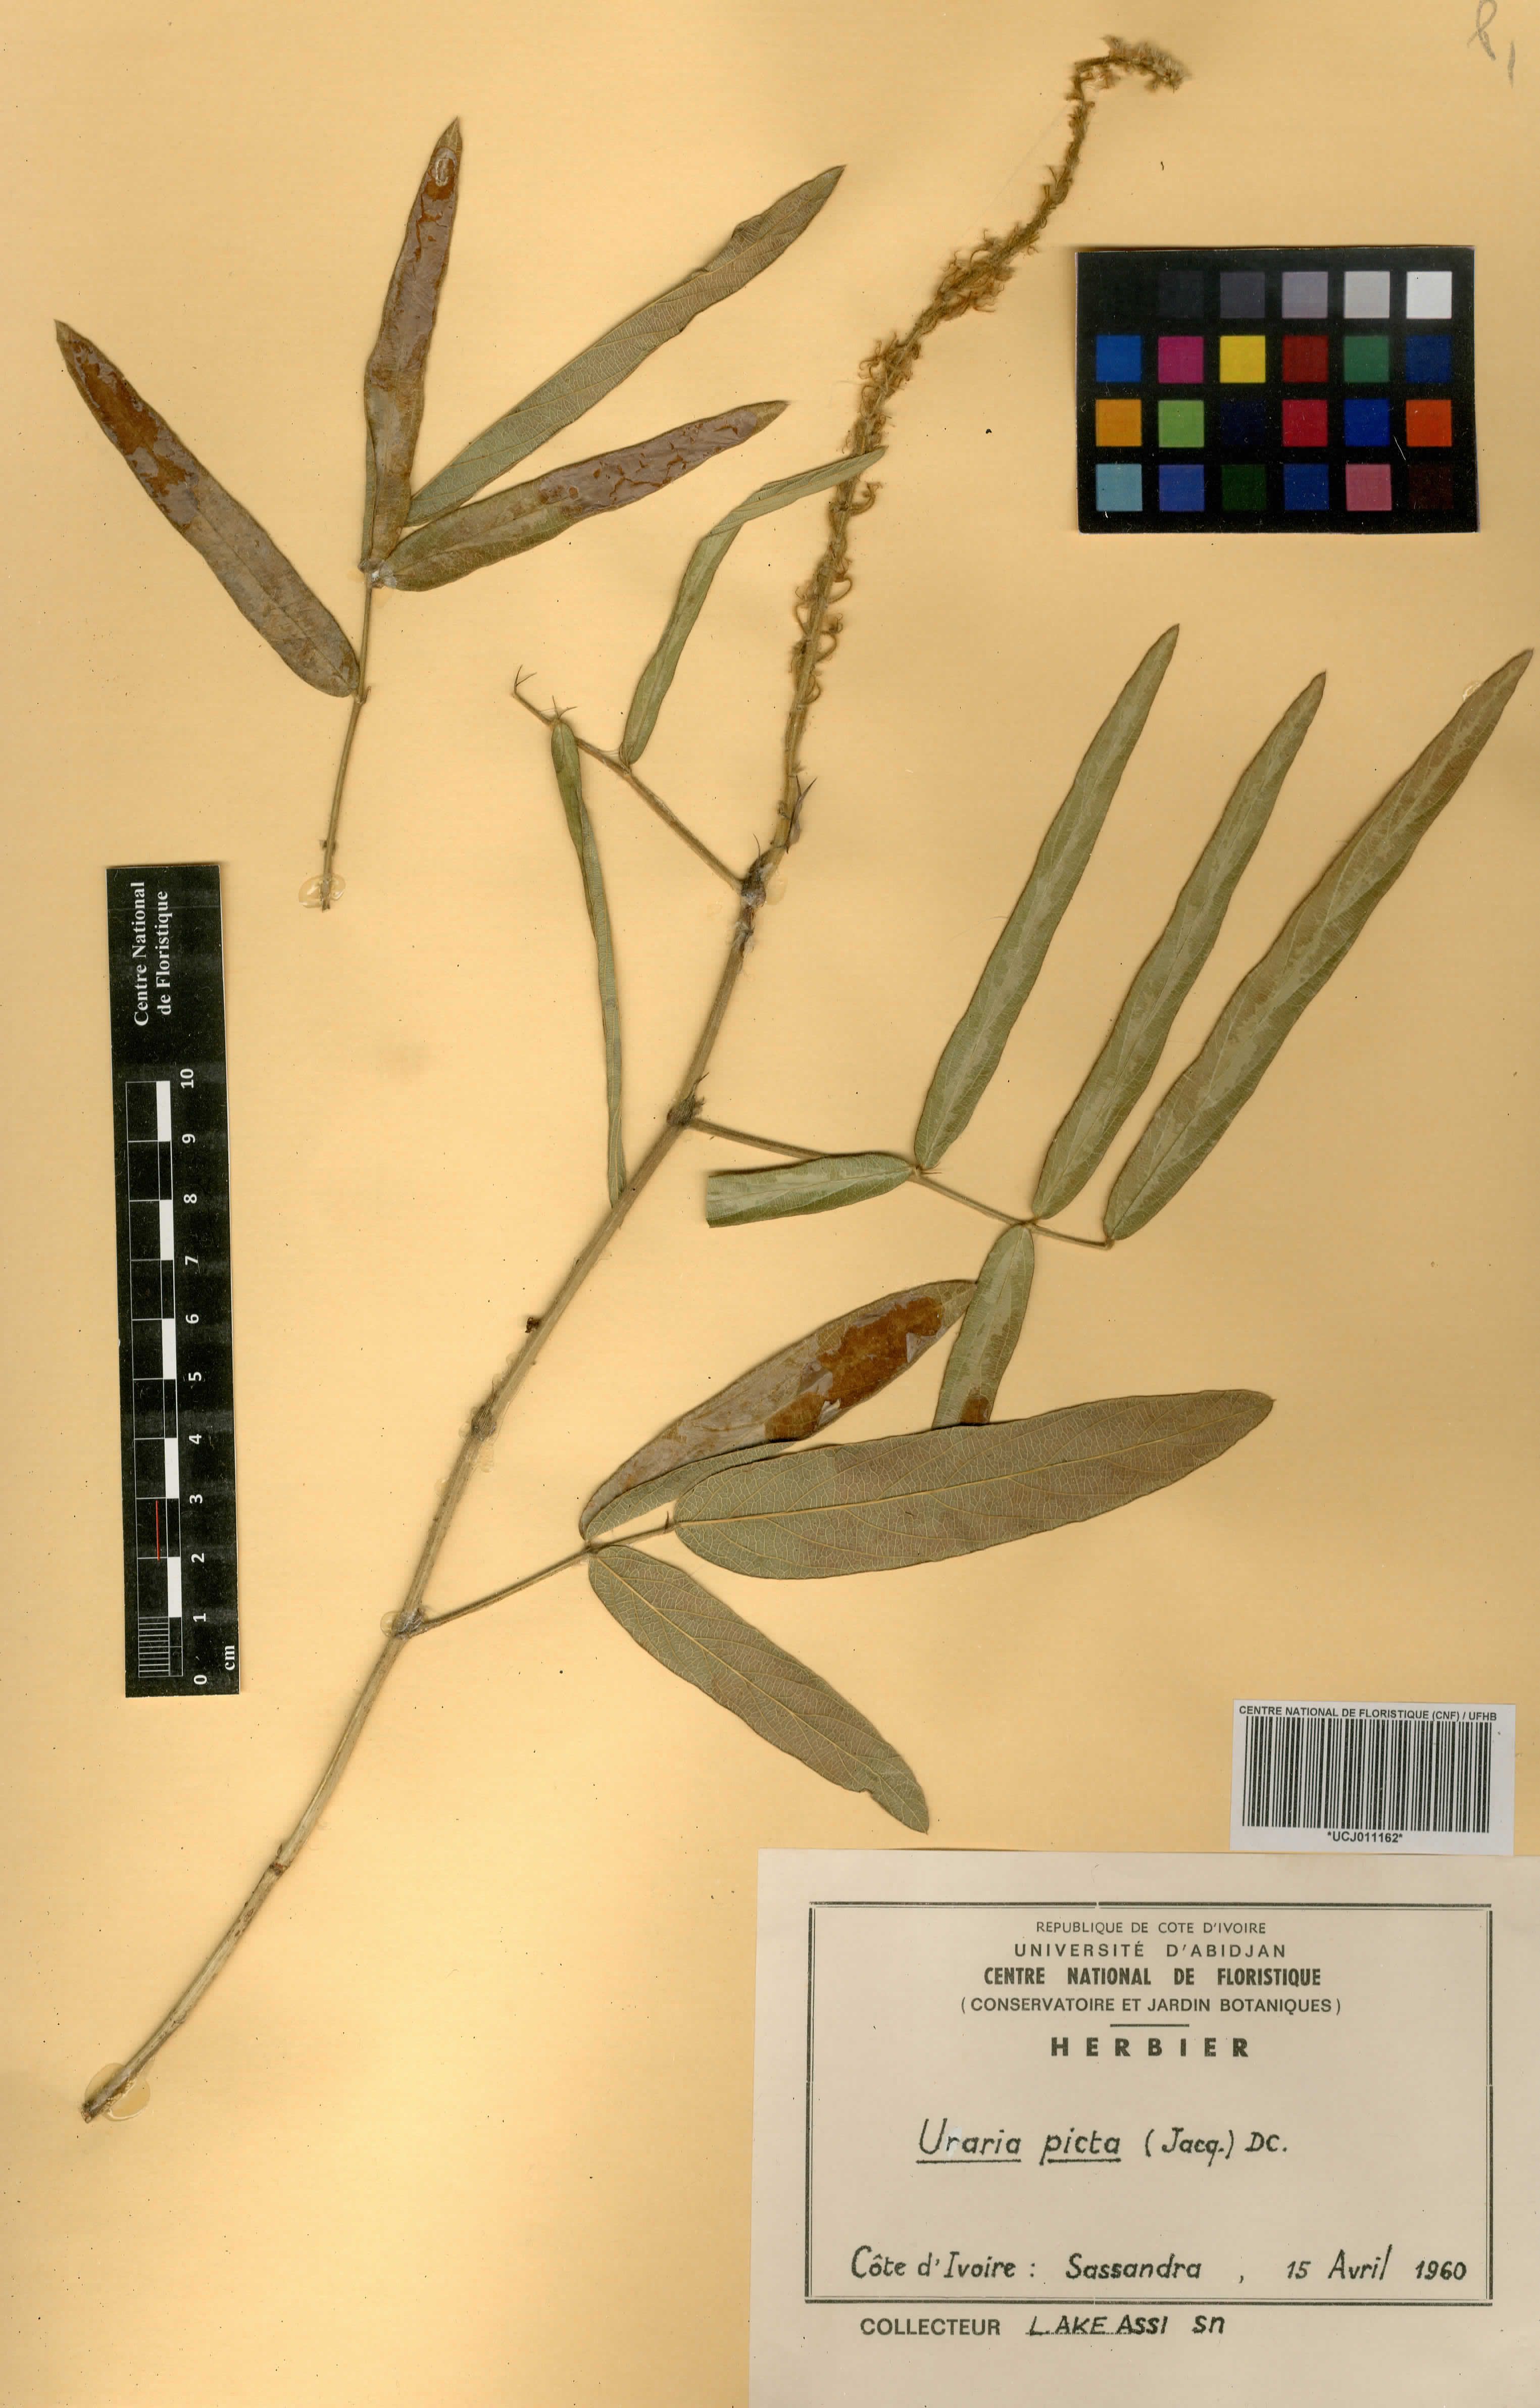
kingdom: Plantae
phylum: Tracheophyta
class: Magnoliopsida
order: Fabales
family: Fabaceae
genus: Uraria
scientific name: Uraria picta
